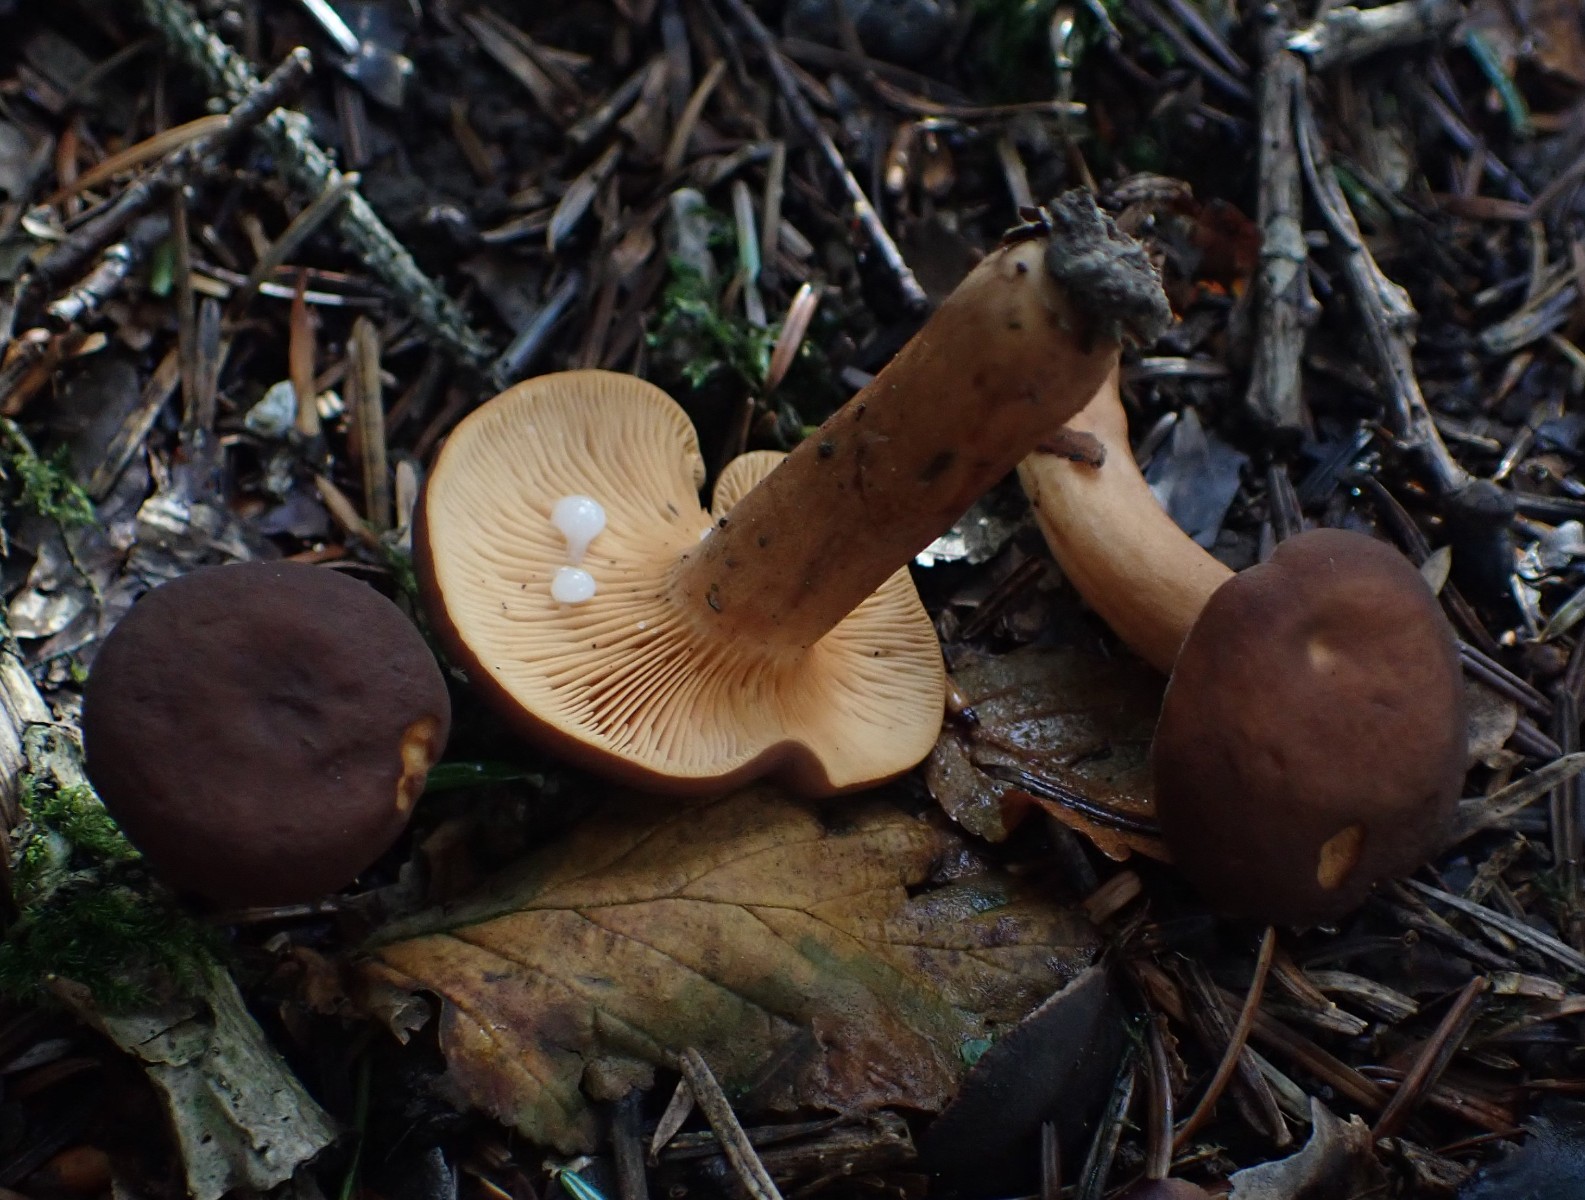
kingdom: Fungi
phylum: Basidiomycota
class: Agaricomycetes
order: Russulales
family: Russulaceae
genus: Lactarius
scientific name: Lactarius serifluus
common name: tæge-mælkehat
